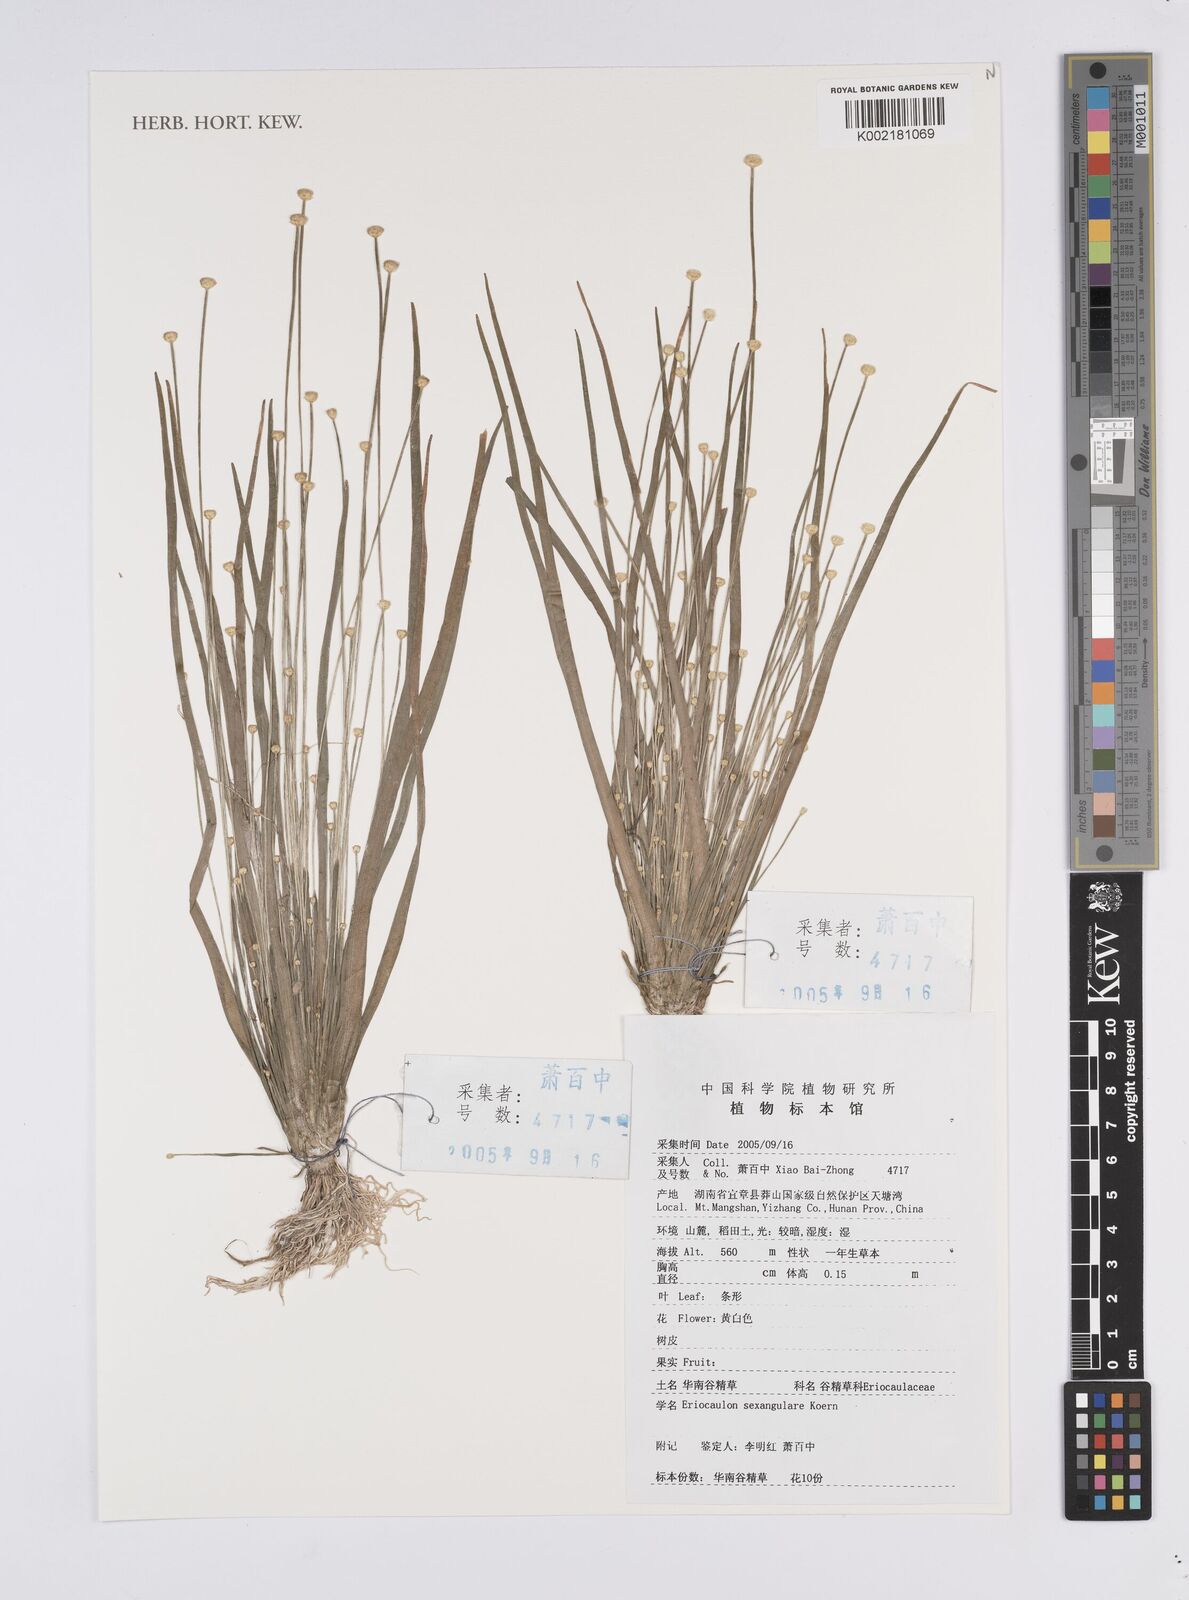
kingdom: Plantae
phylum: Tracheophyta
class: Liliopsida
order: Poales
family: Eriocaulaceae
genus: Eriocaulon
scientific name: Eriocaulon sexangulare
